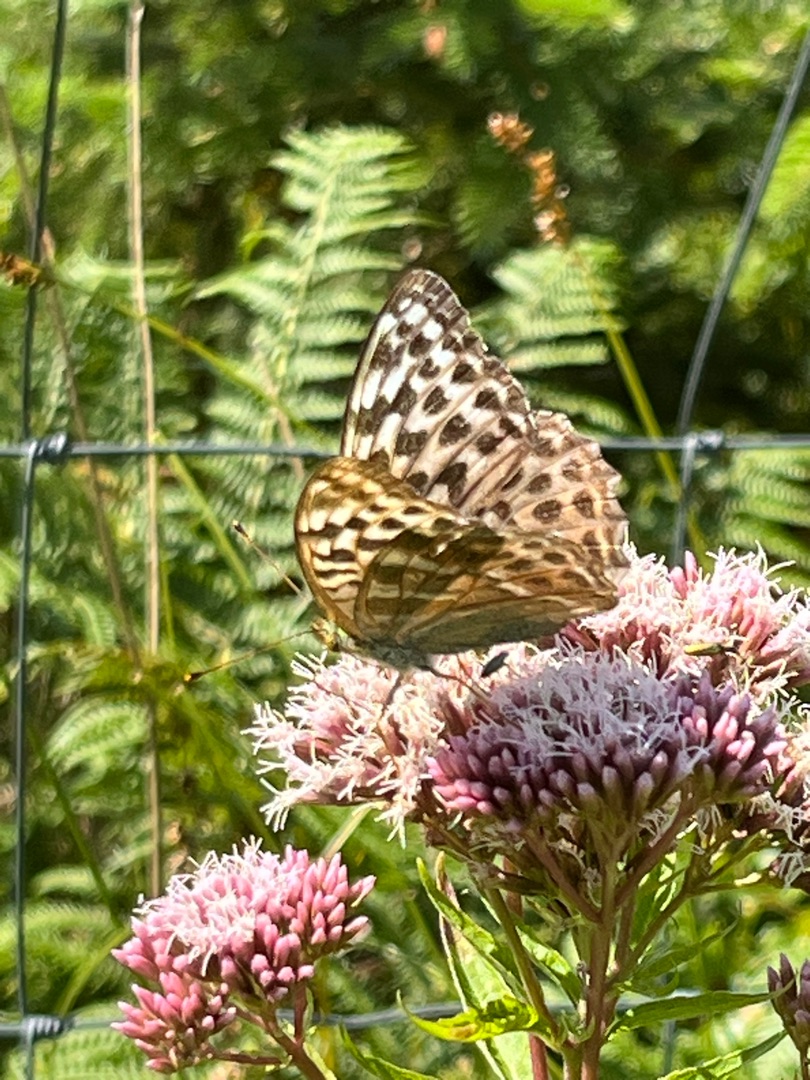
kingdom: Animalia
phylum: Arthropoda
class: Insecta
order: Lepidoptera
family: Nymphalidae
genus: Argynnis
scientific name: Argynnis paphia
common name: Kejserkåbe
